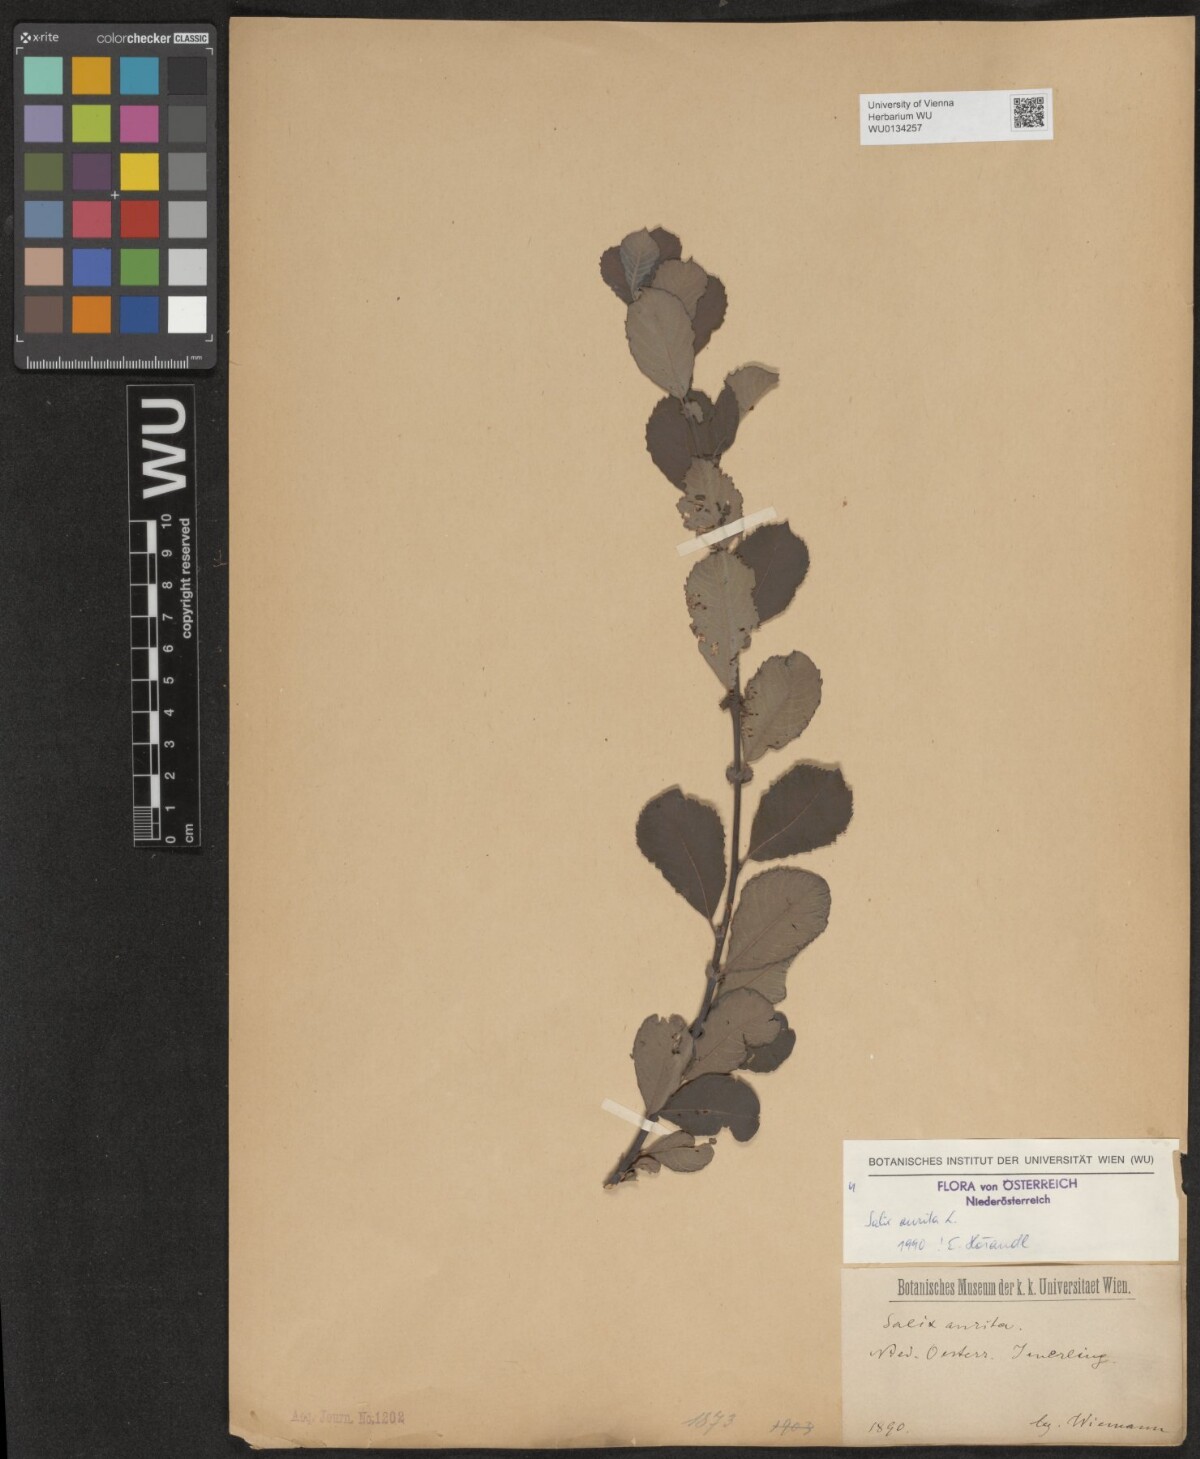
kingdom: Plantae
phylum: Tracheophyta
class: Magnoliopsida
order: Malpighiales
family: Salicaceae
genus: Salix
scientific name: Salix aurita
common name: Eared willow
